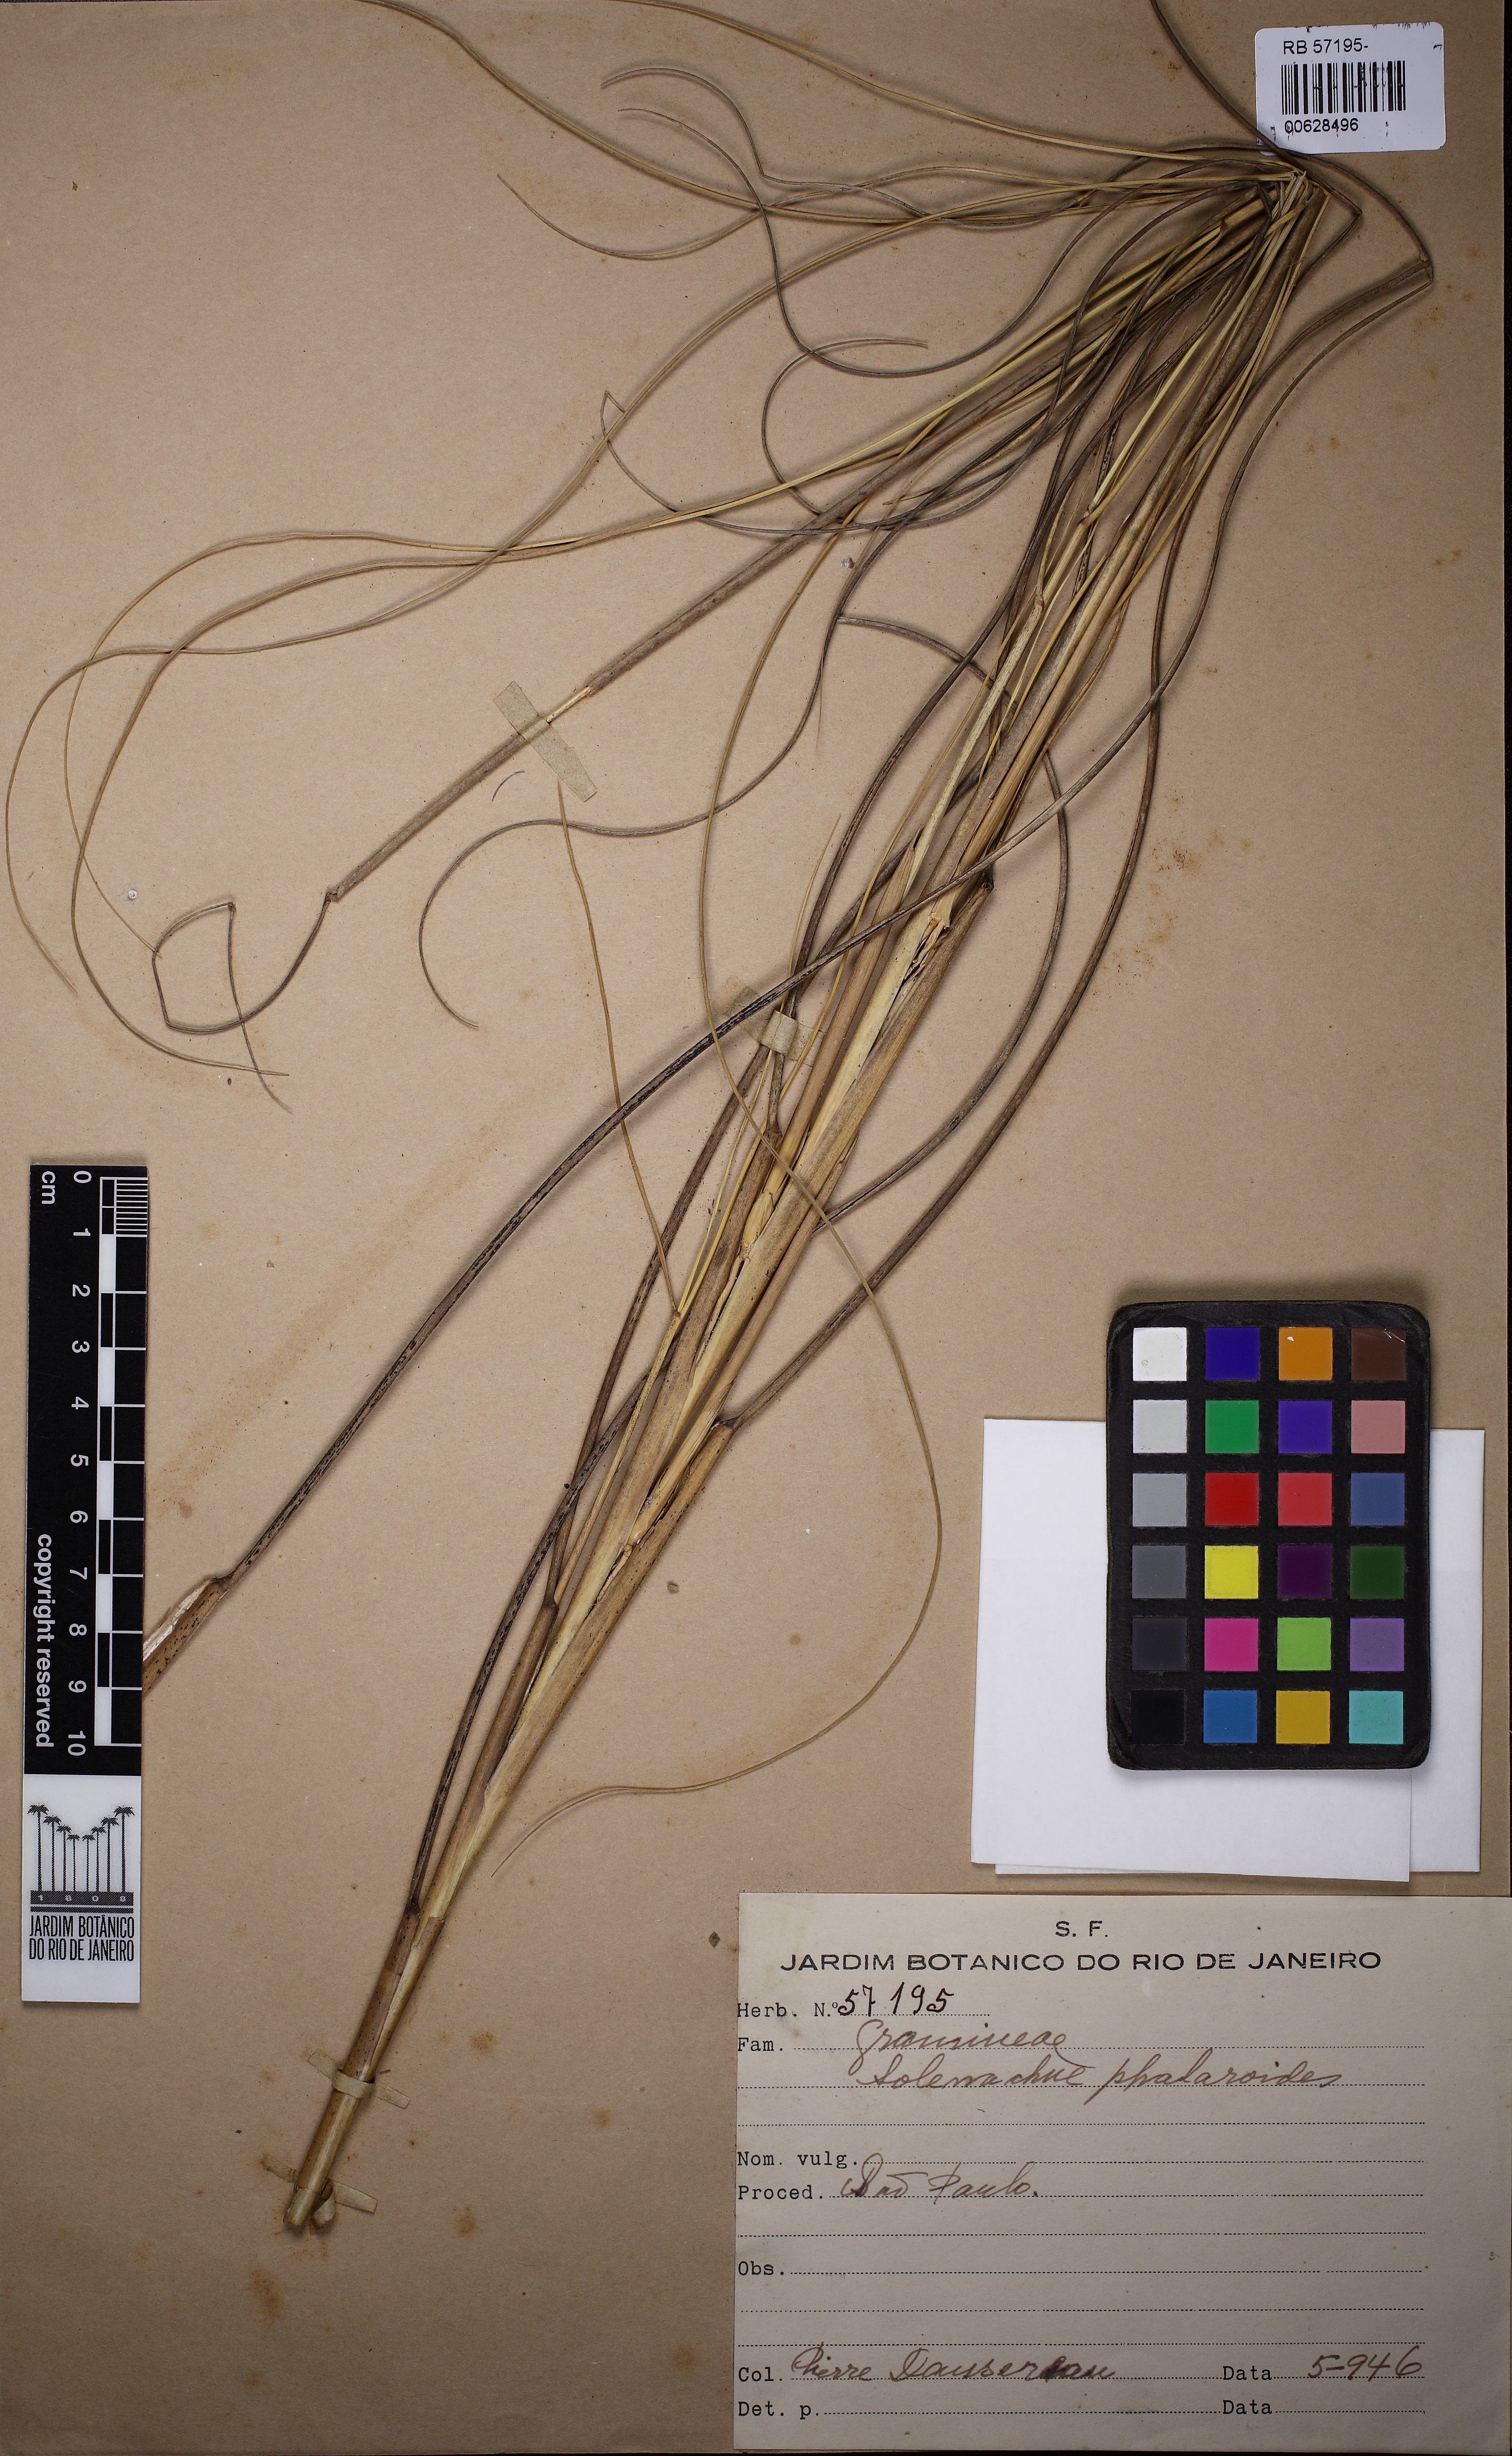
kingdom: Plantae
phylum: Tracheophyta
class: Liliopsida
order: Poales
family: Poaceae
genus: Sporobolus
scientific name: Sporobolus coarctatus
